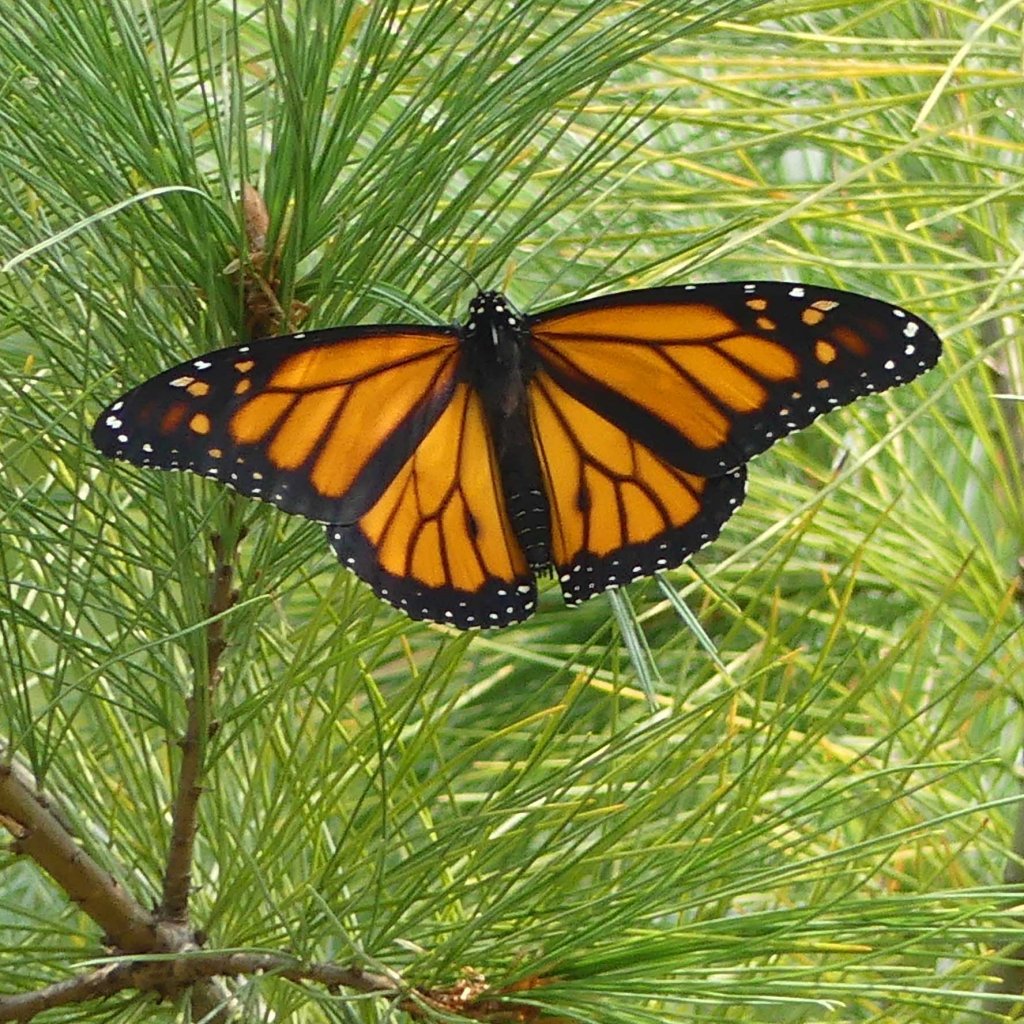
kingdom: Animalia
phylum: Arthropoda
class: Insecta
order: Lepidoptera
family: Nymphalidae
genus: Danaus
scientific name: Danaus plexippus
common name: Monarch
